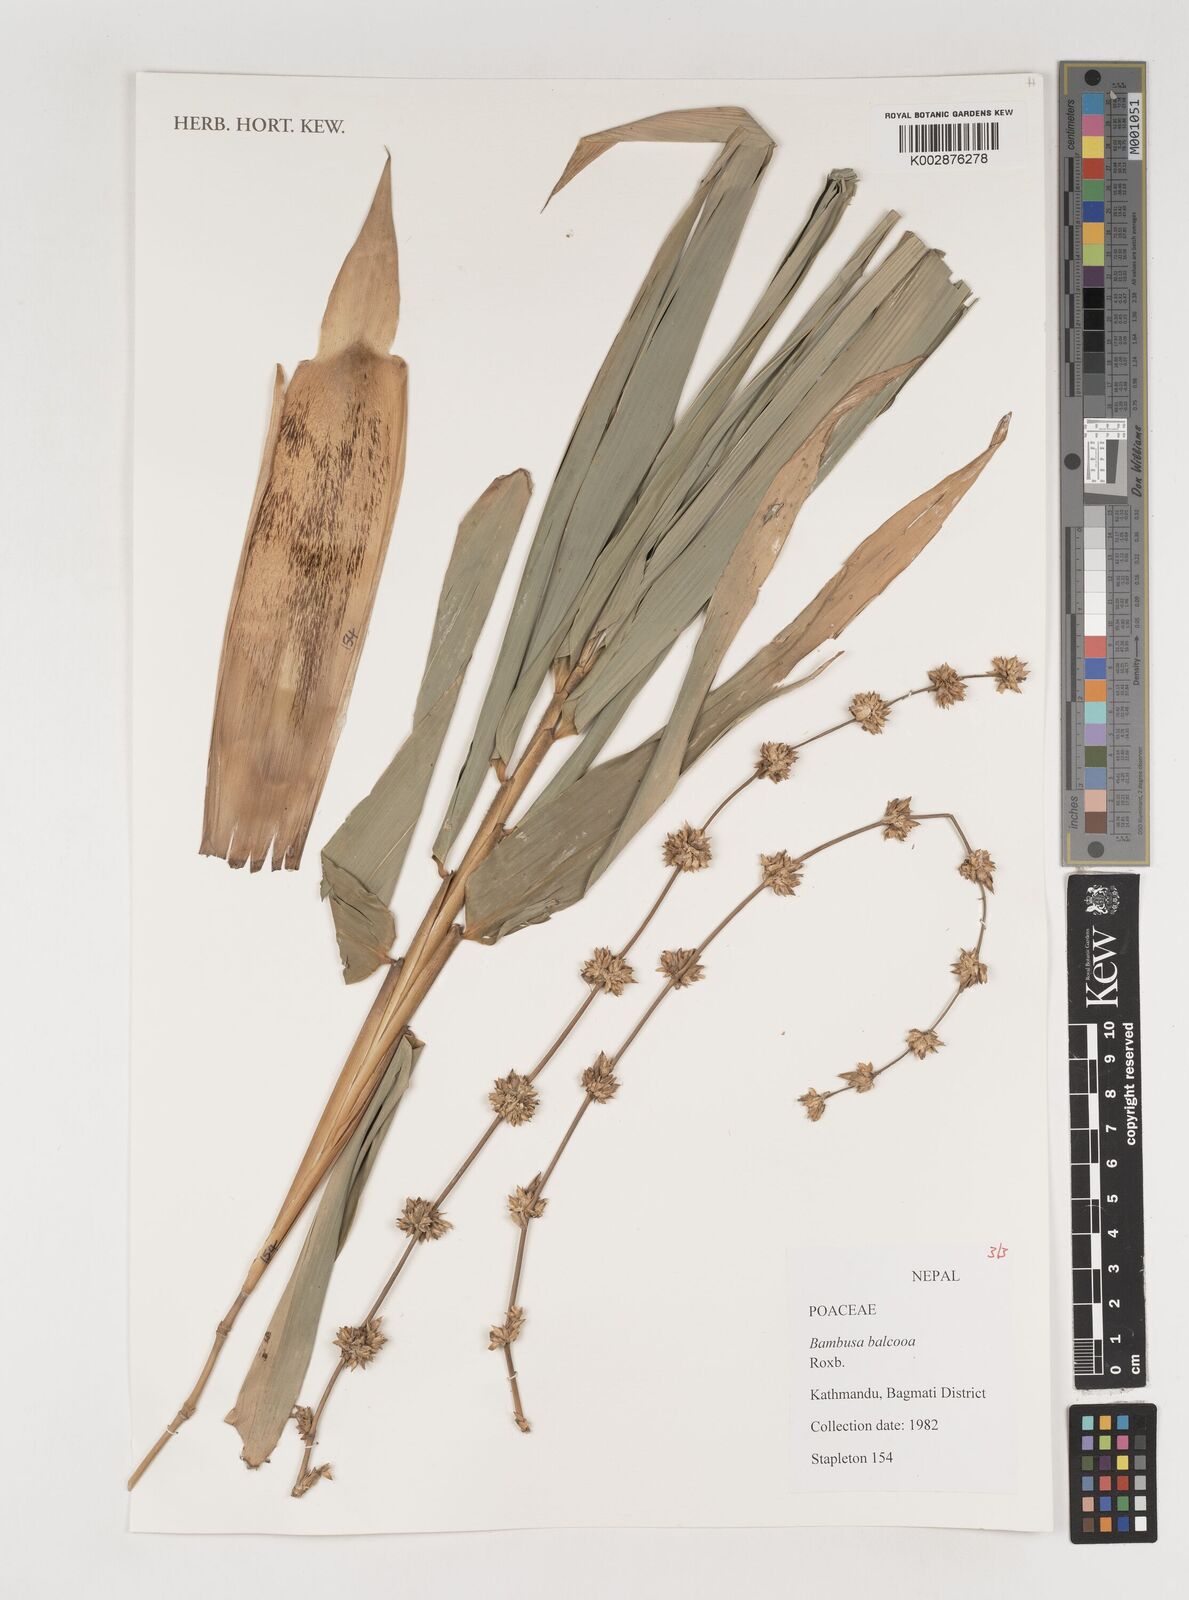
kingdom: Plantae
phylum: Tracheophyta
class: Liliopsida
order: Poales
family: Poaceae
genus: Bambusa
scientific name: Bambusa balcooa
